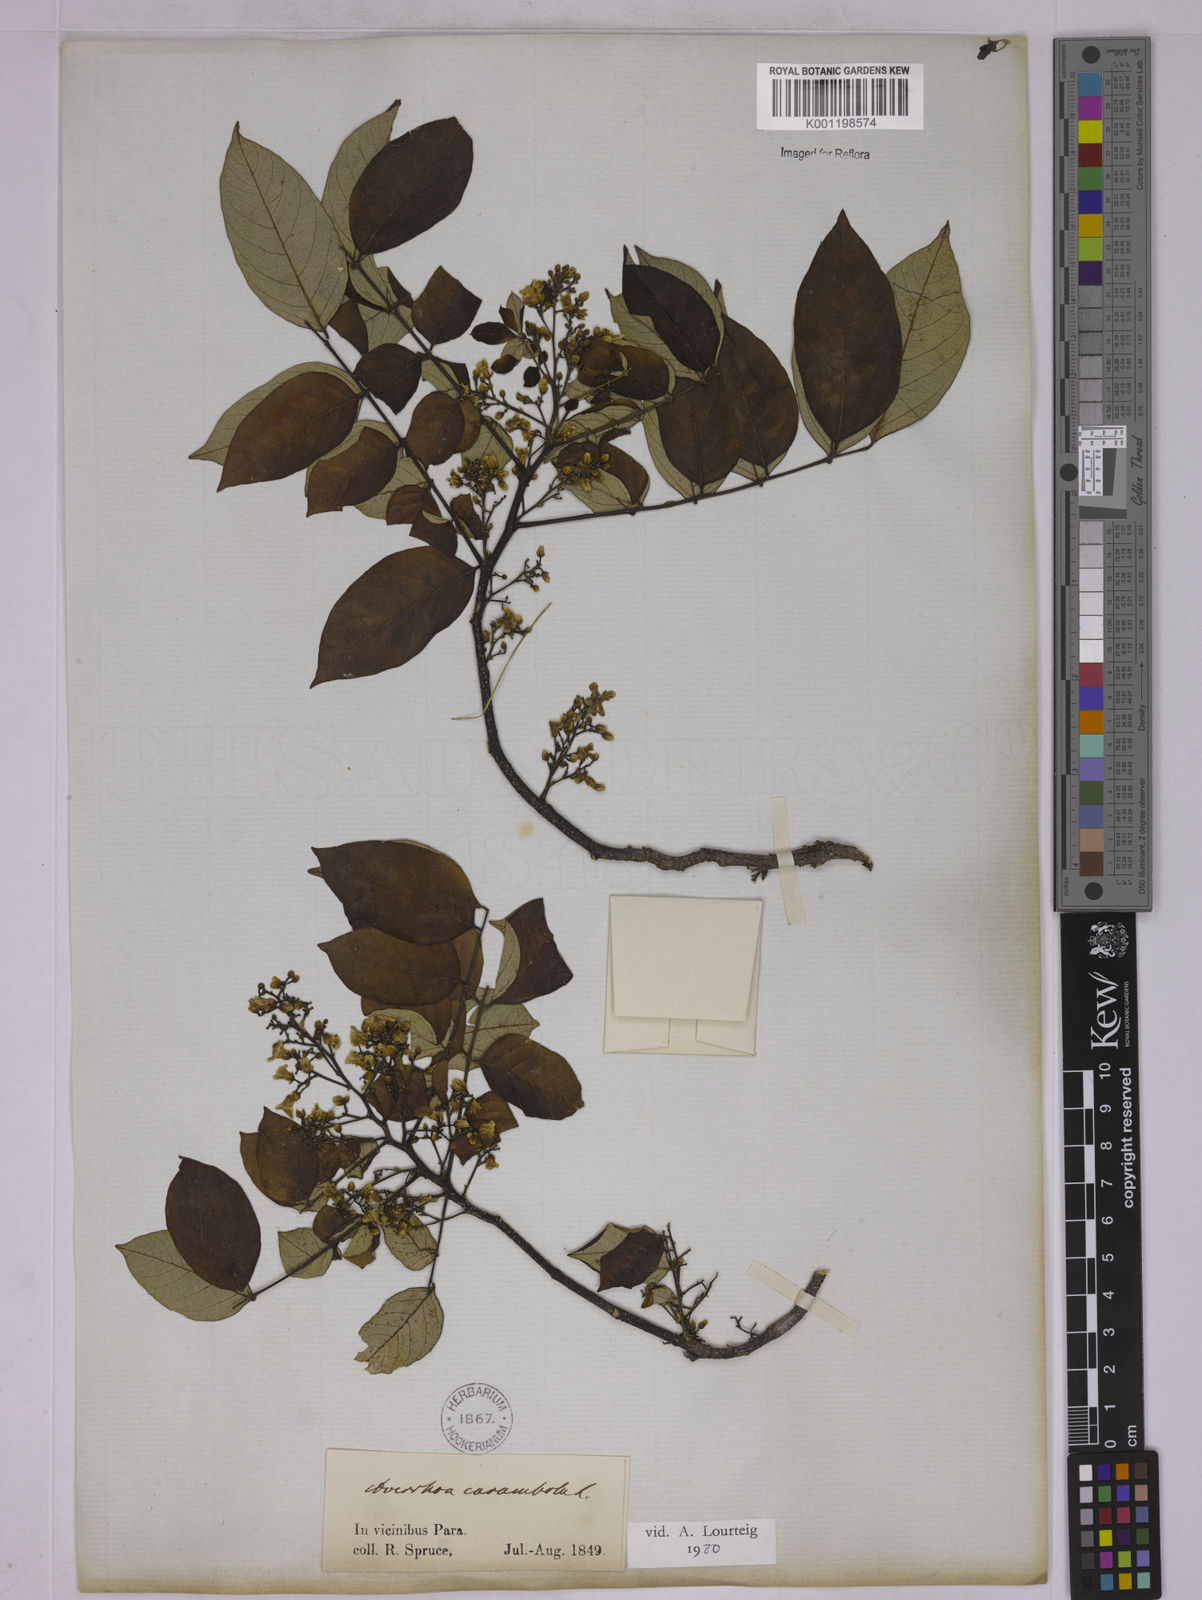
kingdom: Plantae
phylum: Tracheophyta
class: Magnoliopsida
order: Oxalidales
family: Oxalidaceae
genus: Averrhoa
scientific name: Averrhoa bilimbi
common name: Bilimbi
